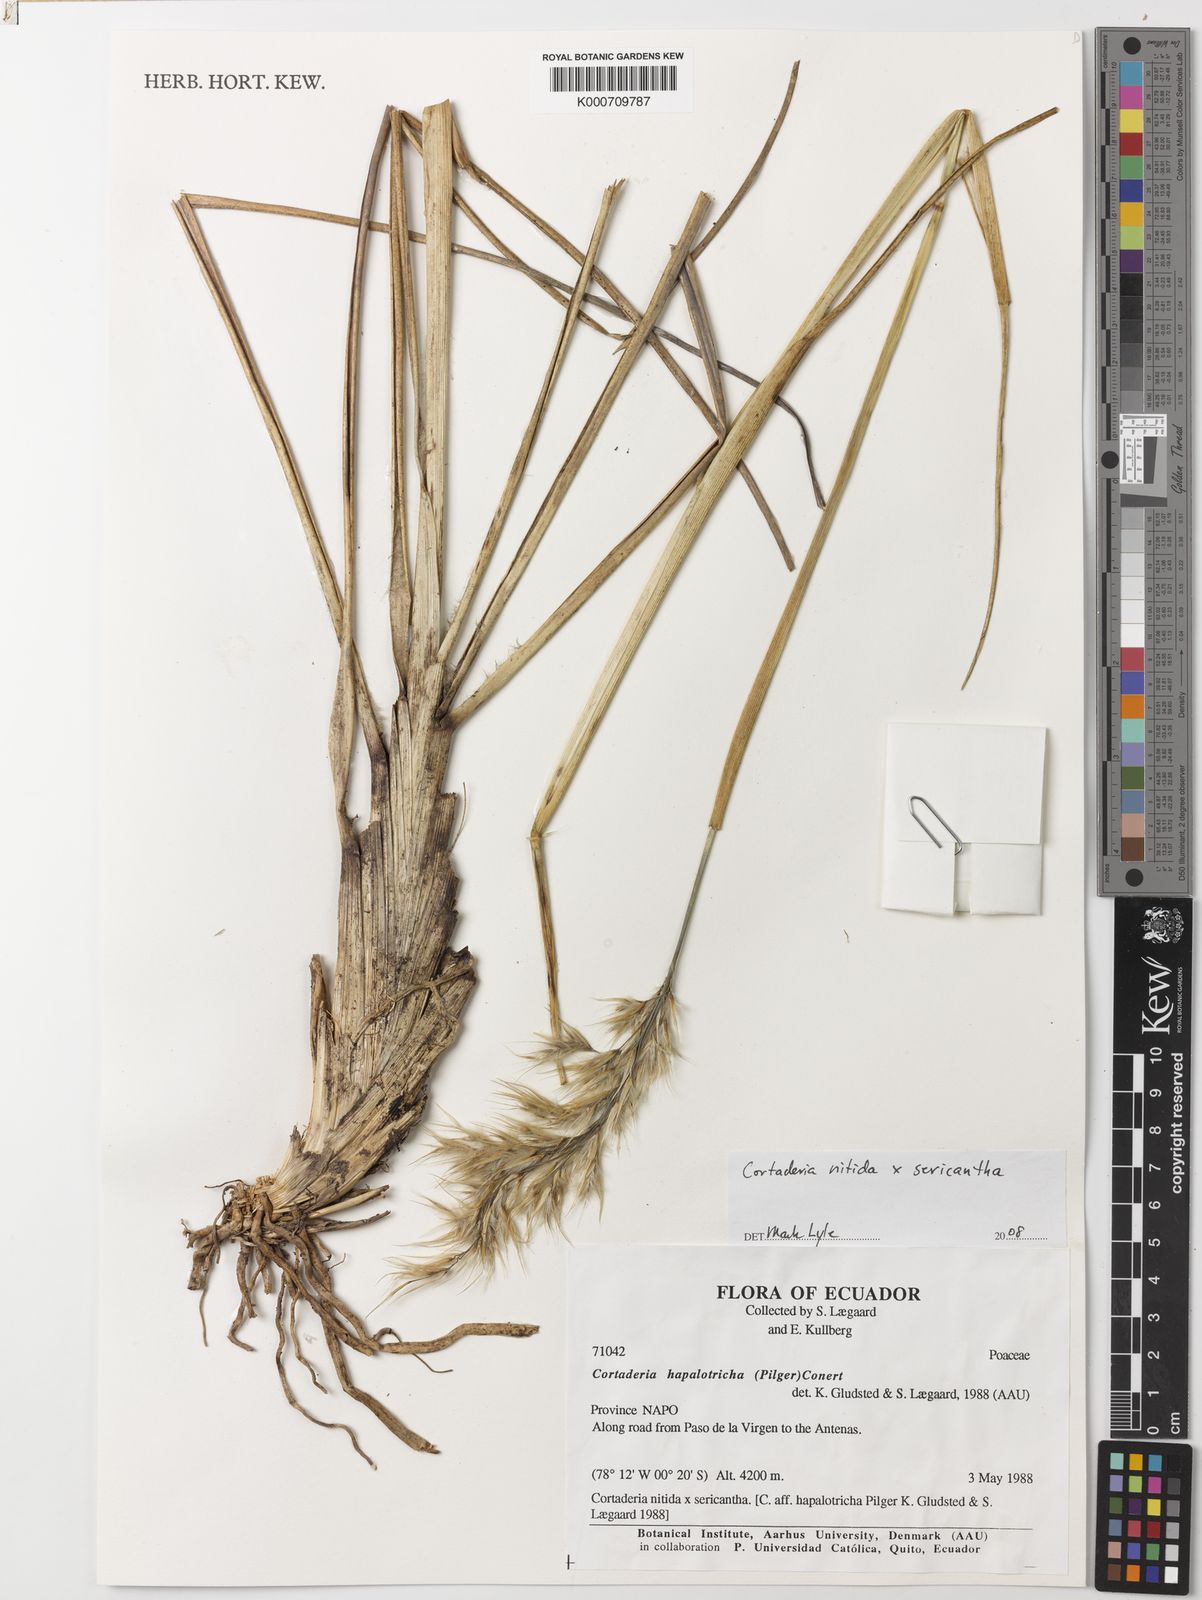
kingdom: Plantae
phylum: Tracheophyta
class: Liliopsida
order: Poales
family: Poaceae
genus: Cortaderia
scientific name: Cortaderia nitida
